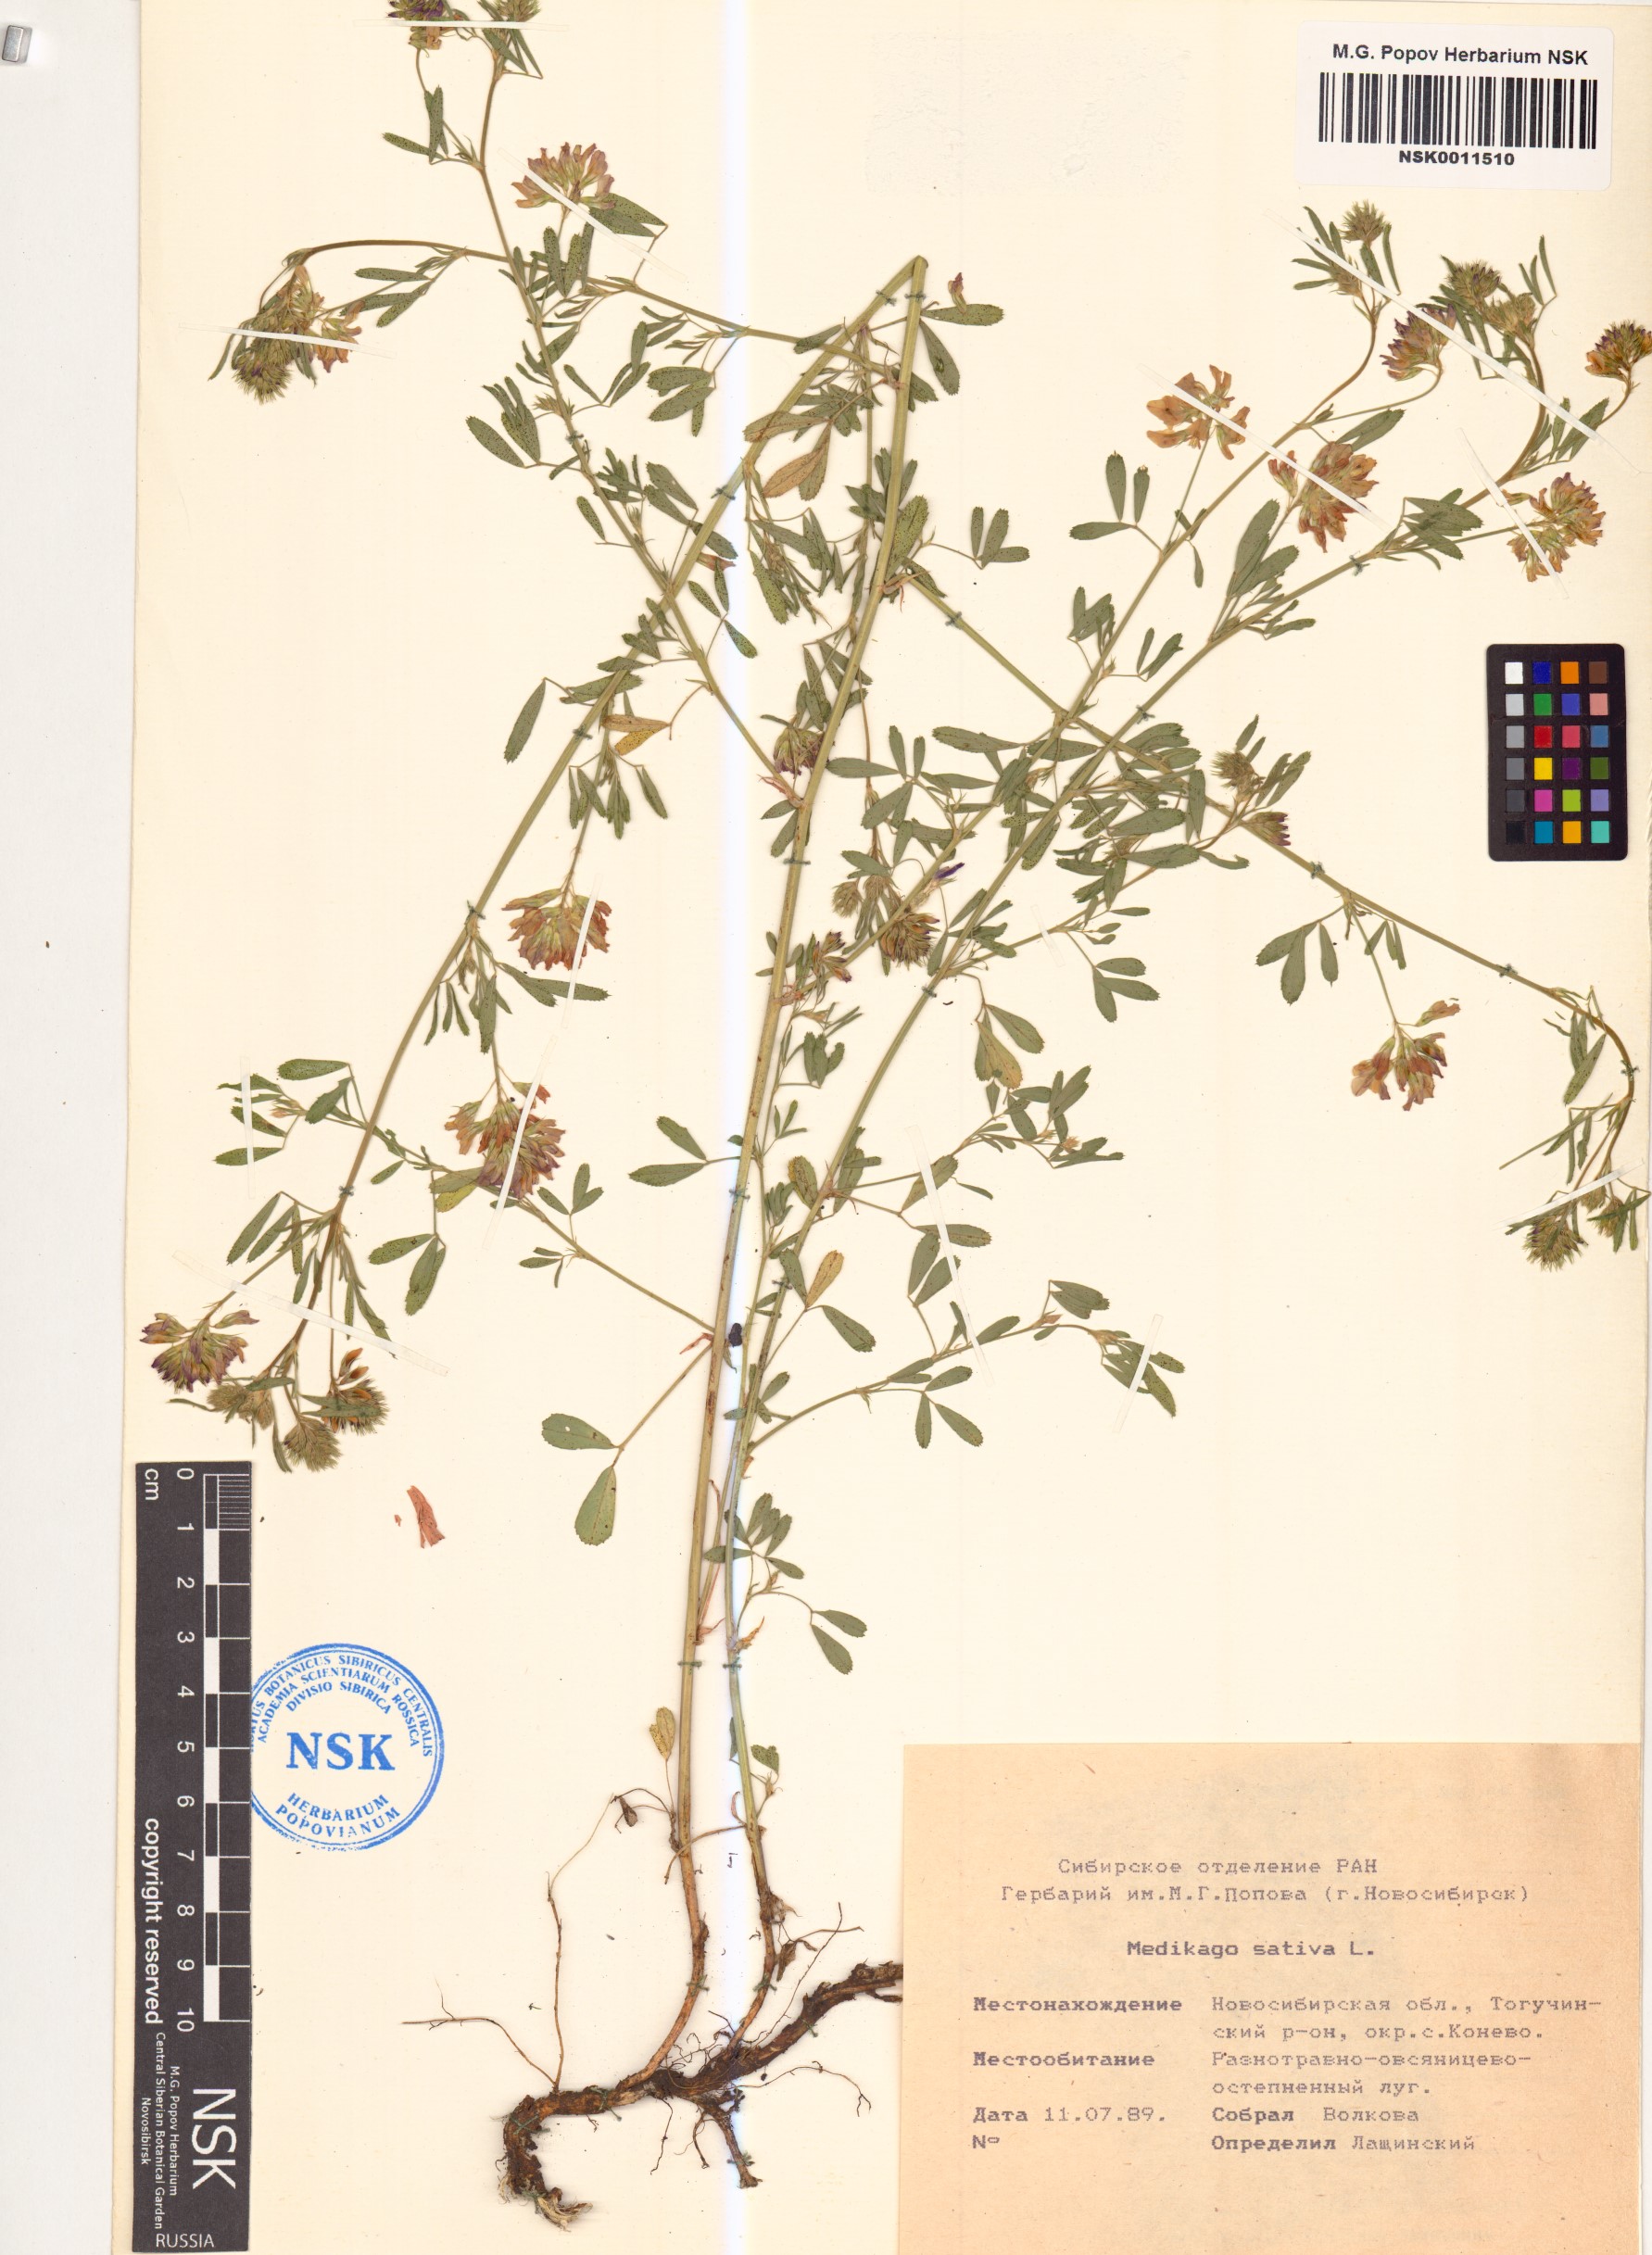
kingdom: Plantae
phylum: Tracheophyta
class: Magnoliopsida
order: Fabales
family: Fabaceae
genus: Medicago
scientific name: Medicago sativa
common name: Alfalfa
